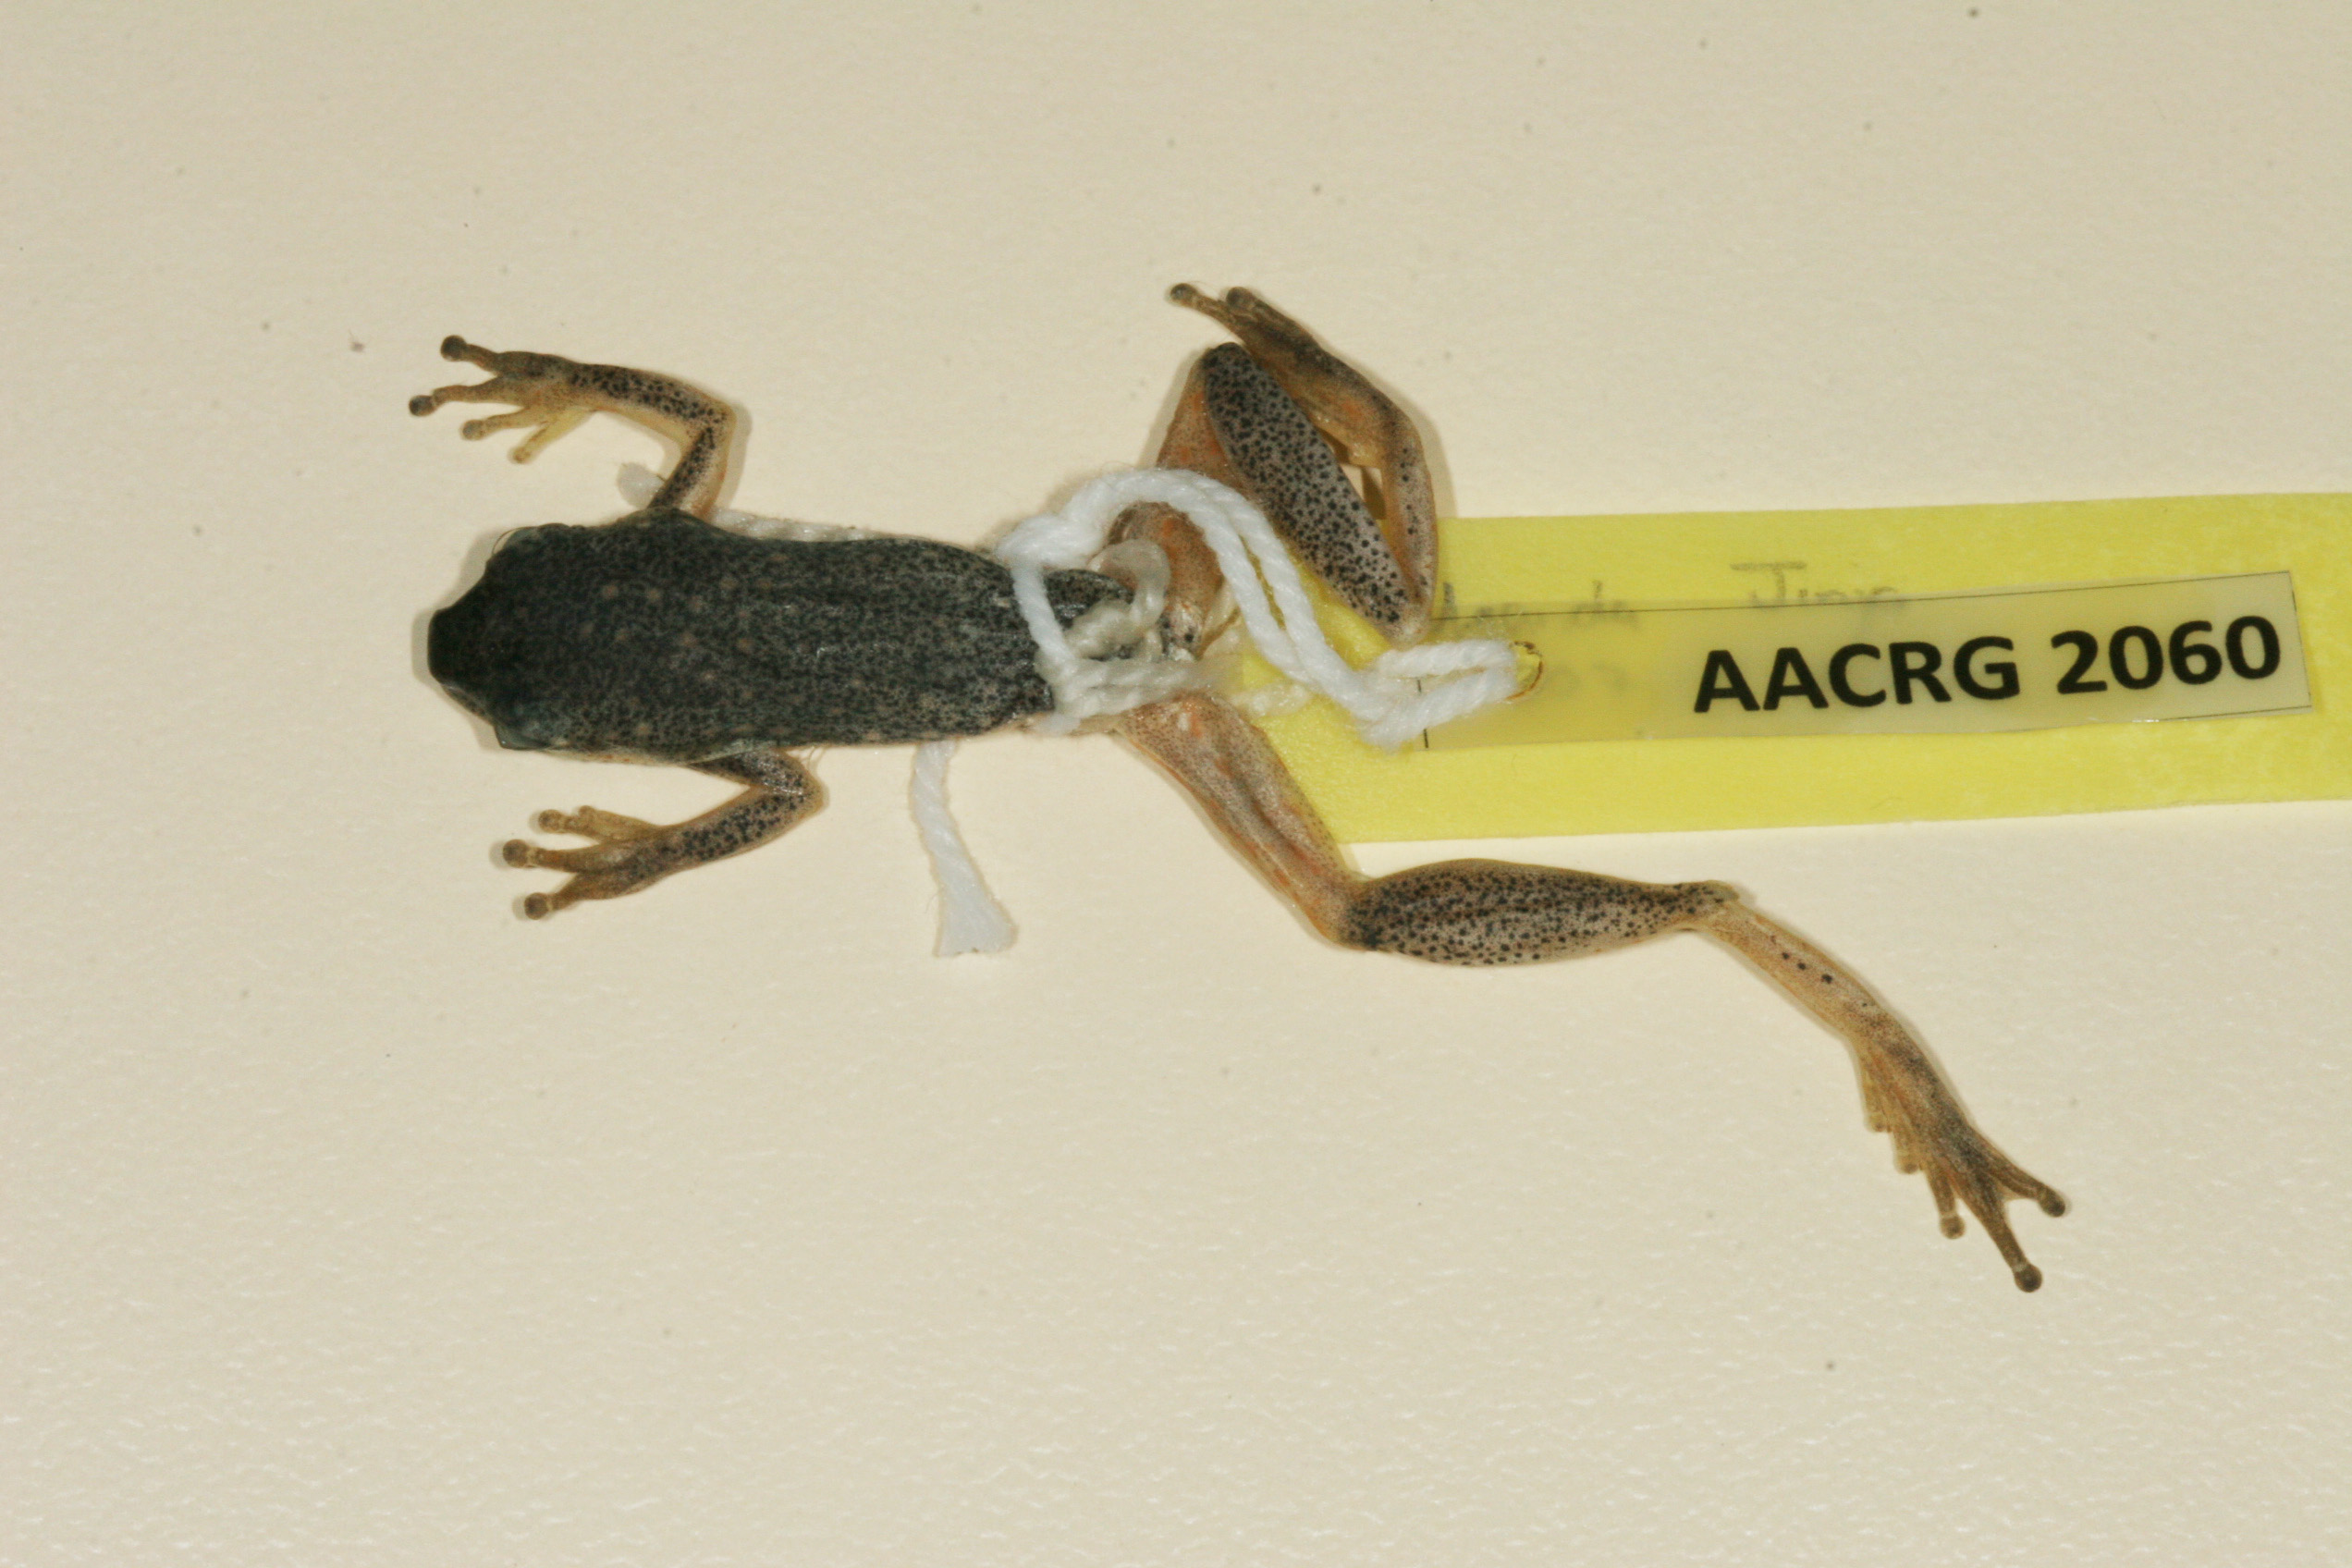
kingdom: Animalia
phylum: Chordata
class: Amphibia
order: Anura
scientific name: Anura
